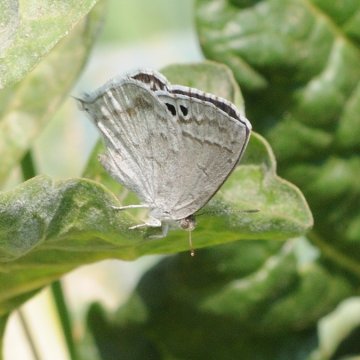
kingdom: Animalia
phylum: Arthropoda
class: Insecta
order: Lepidoptera
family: Lycaenidae
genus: Leptomyrina
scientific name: Leptomyrina gorgias
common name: Common Black-eye
